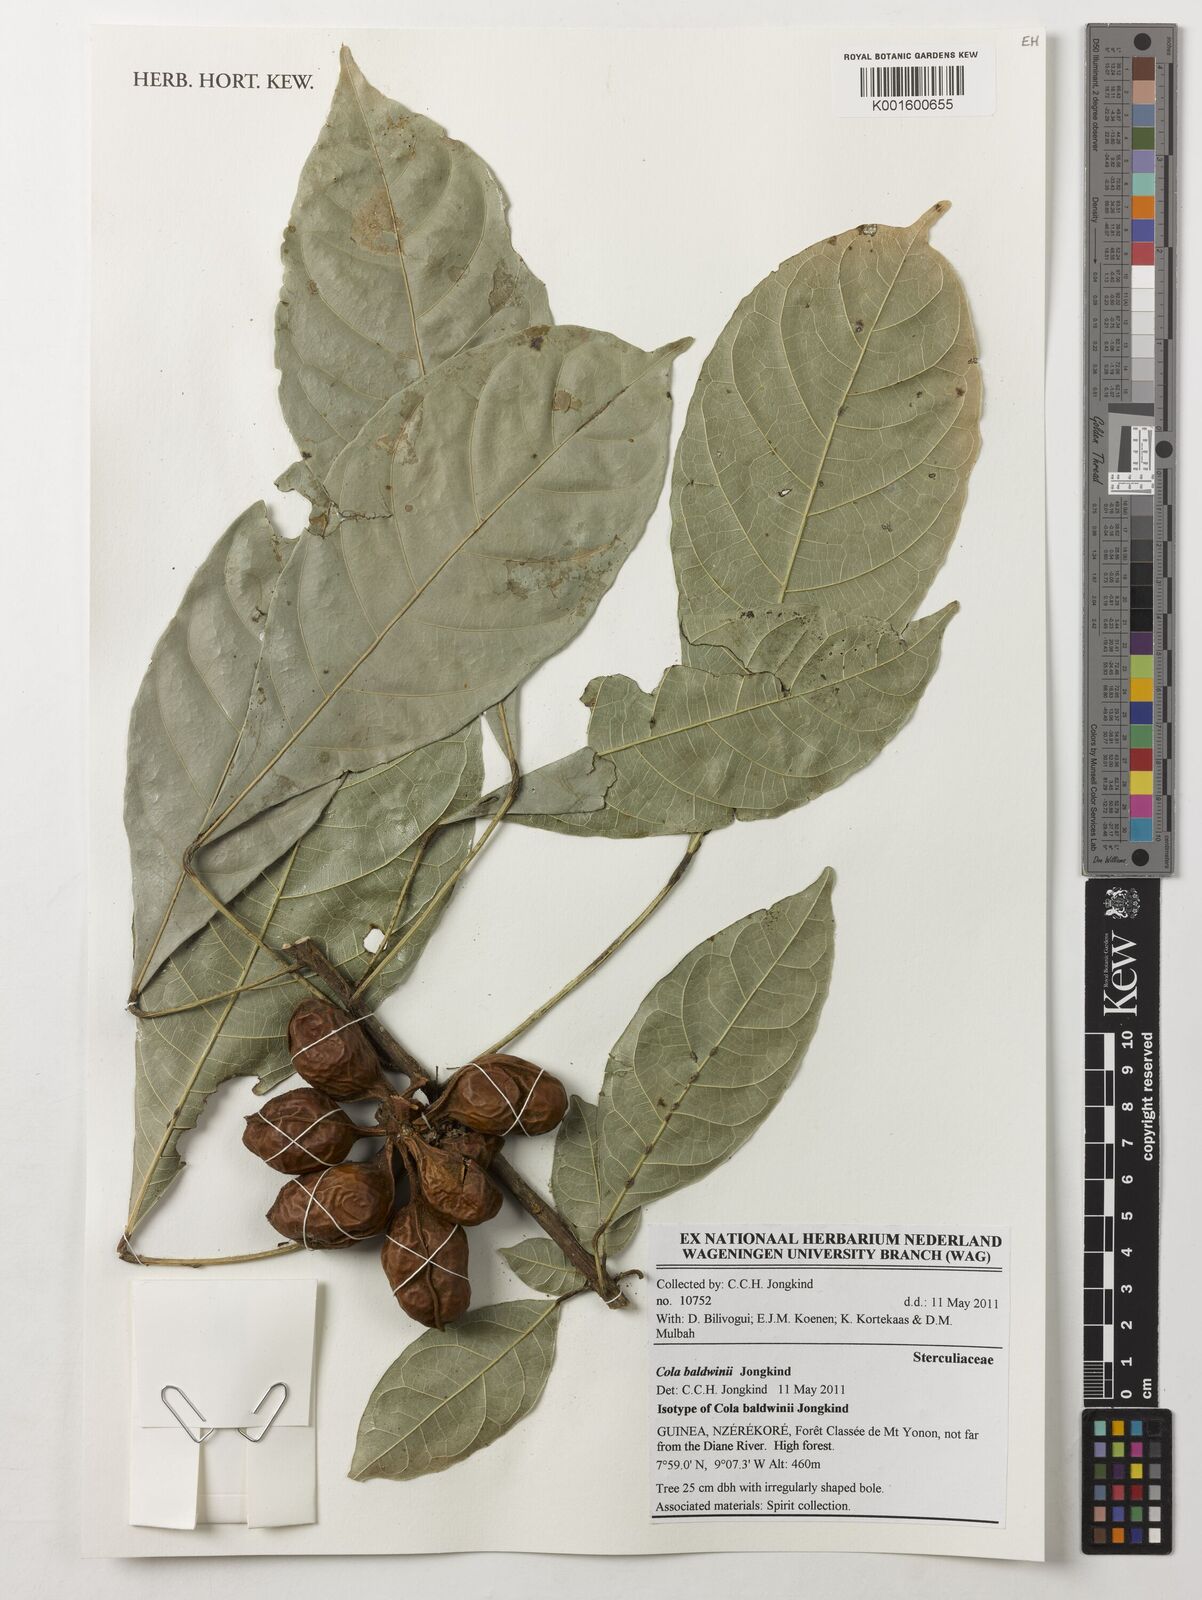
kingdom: Plantae
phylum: Tracheophyta
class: Magnoliopsida
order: Malvales
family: Malvaceae
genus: Cola
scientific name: Cola baldwinii
